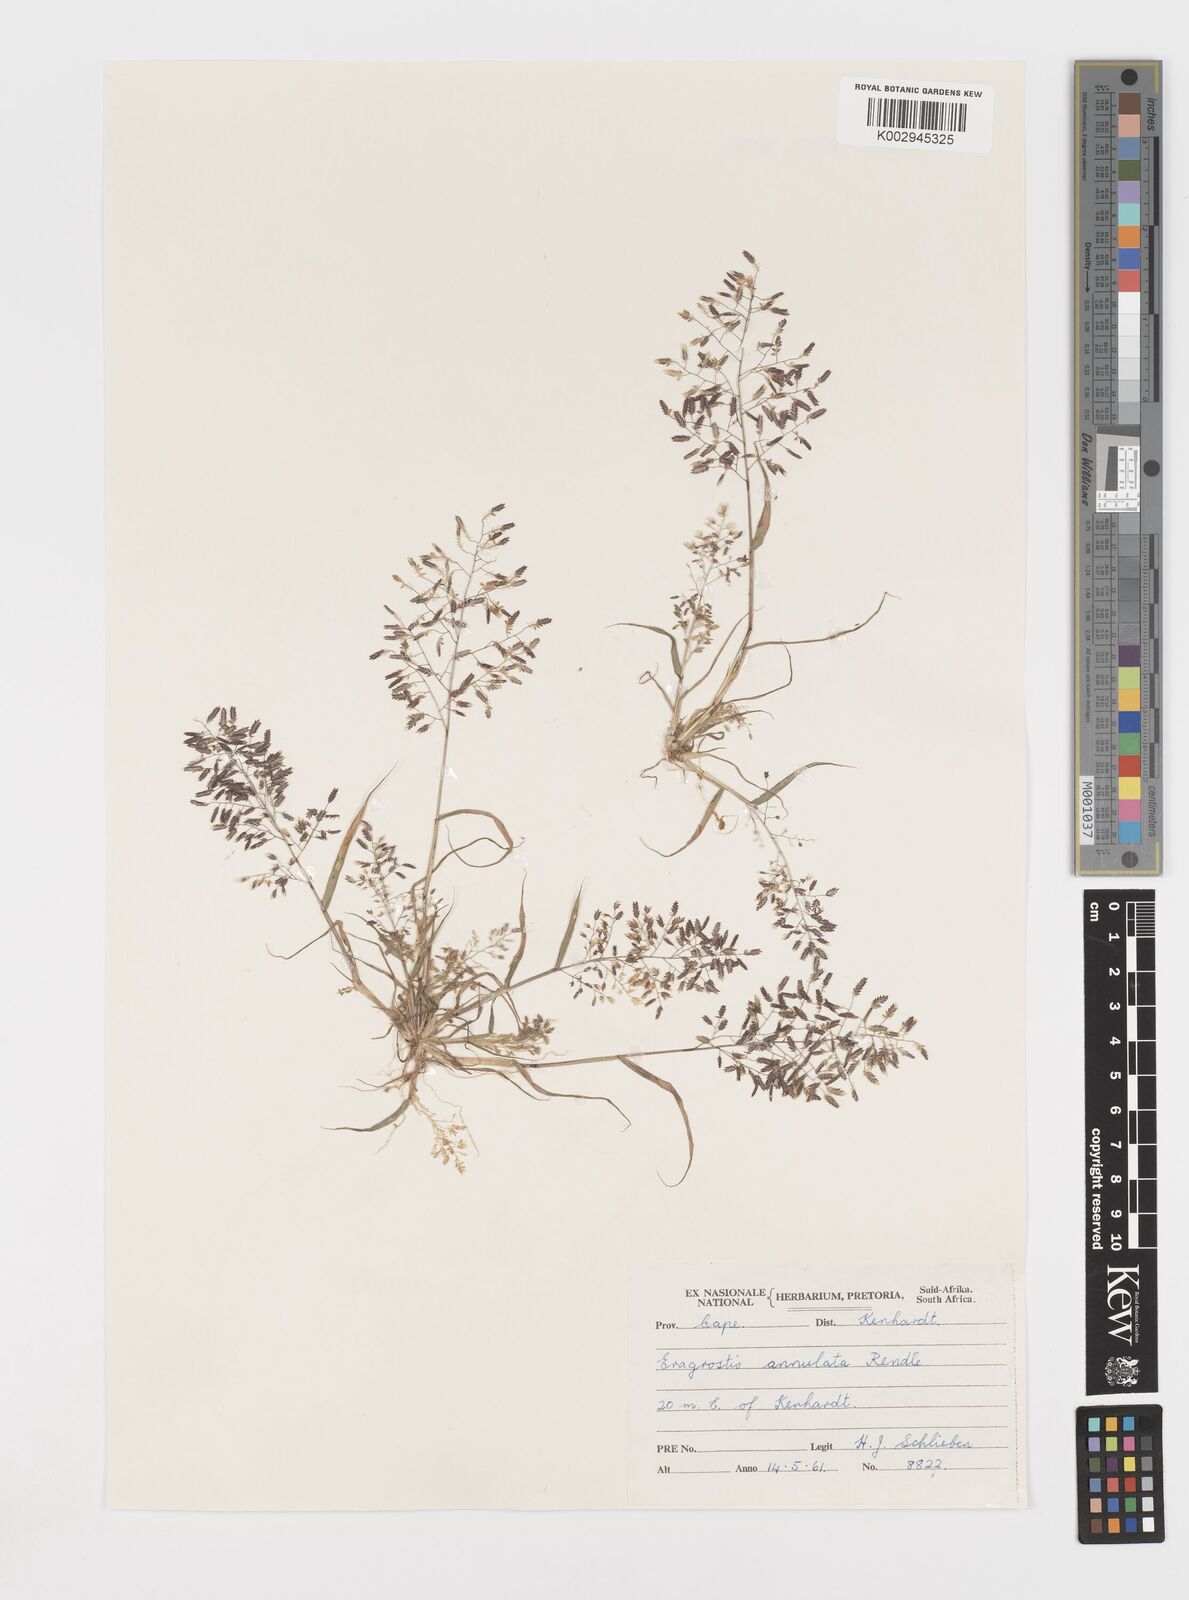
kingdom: Plantae
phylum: Tracheophyta
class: Liliopsida
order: Poales
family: Poaceae
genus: Eragrostis
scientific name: Eragrostis annulata
